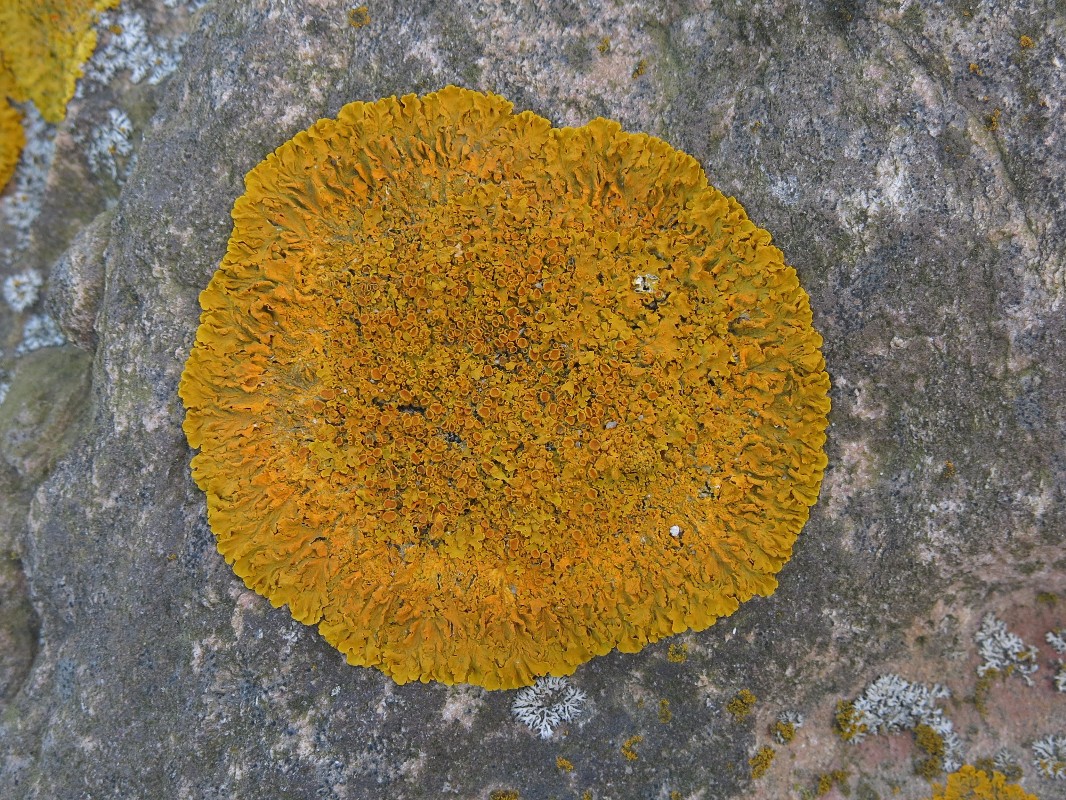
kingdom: Fungi
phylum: Ascomycota
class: Lecanoromycetes
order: Teloschistales
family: Teloschistaceae
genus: Xanthoria
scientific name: Xanthoria parietina
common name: almindelig væggelav
